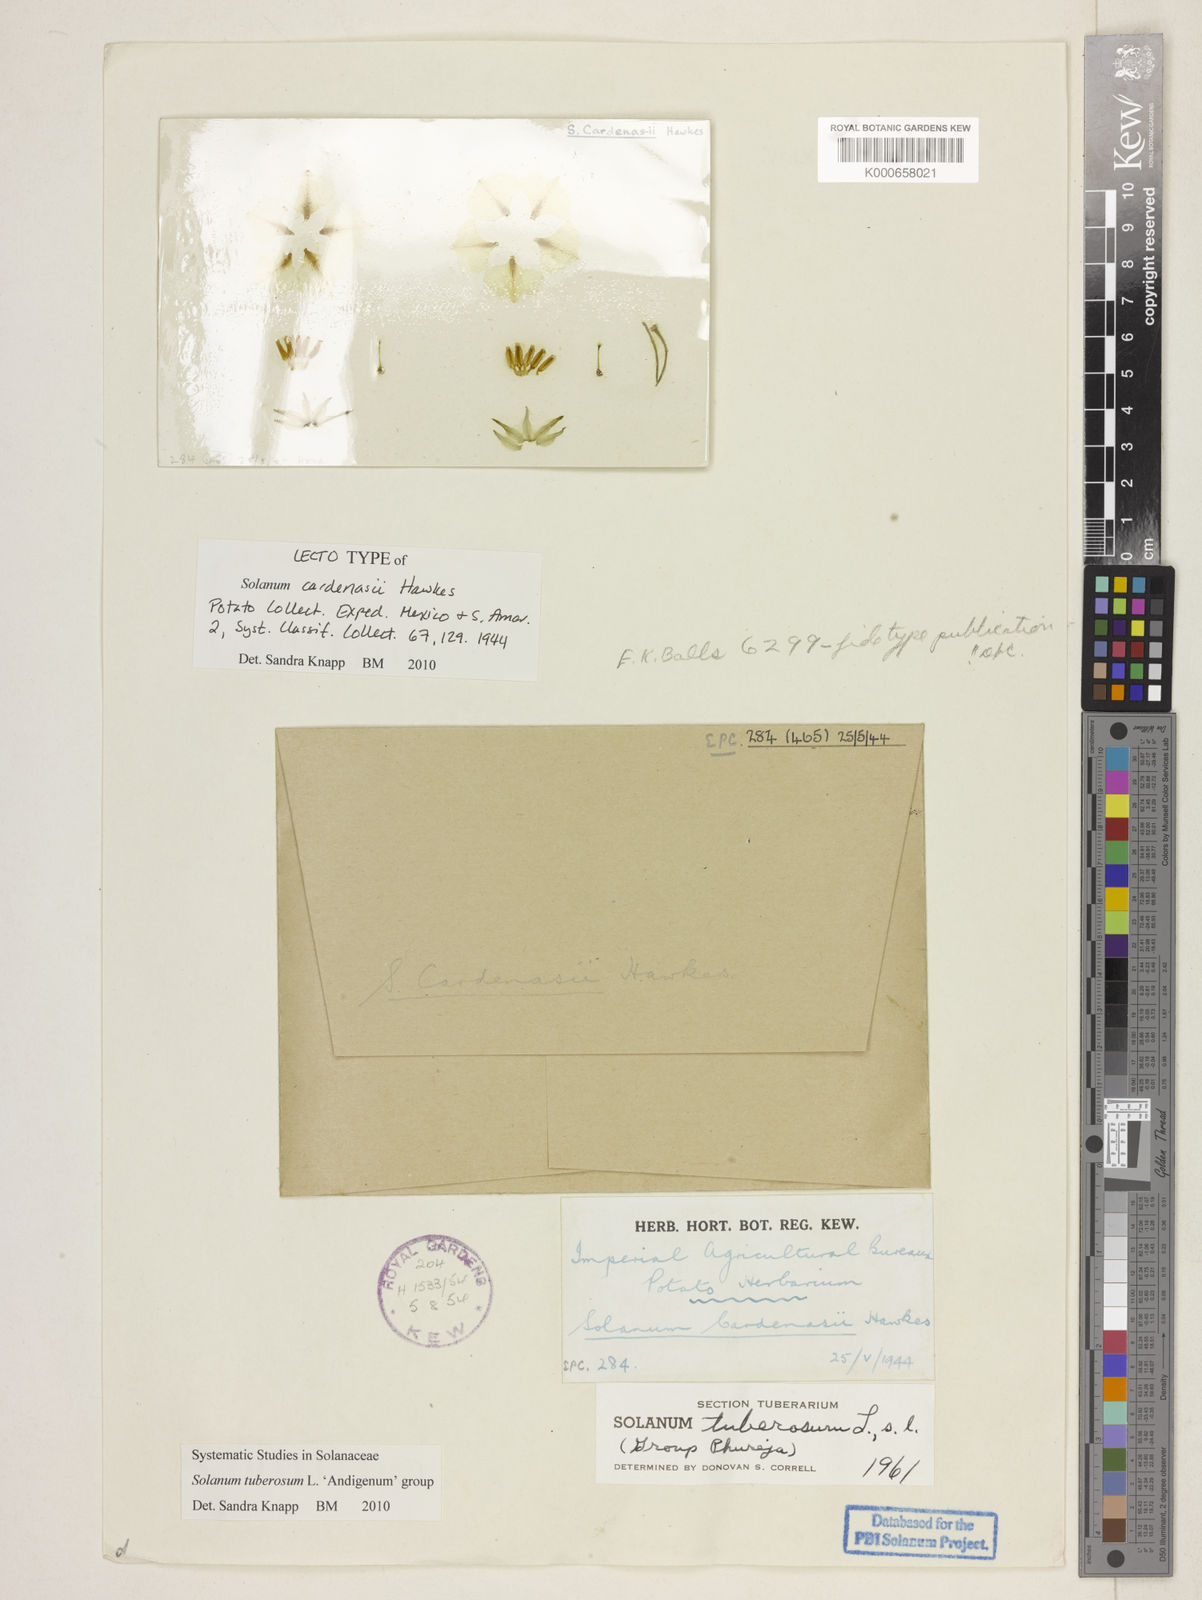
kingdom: Plantae
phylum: Tracheophyta
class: Magnoliopsida
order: Solanales
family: Solanaceae
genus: Solanum
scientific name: Solanum tuberosum
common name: Potato
